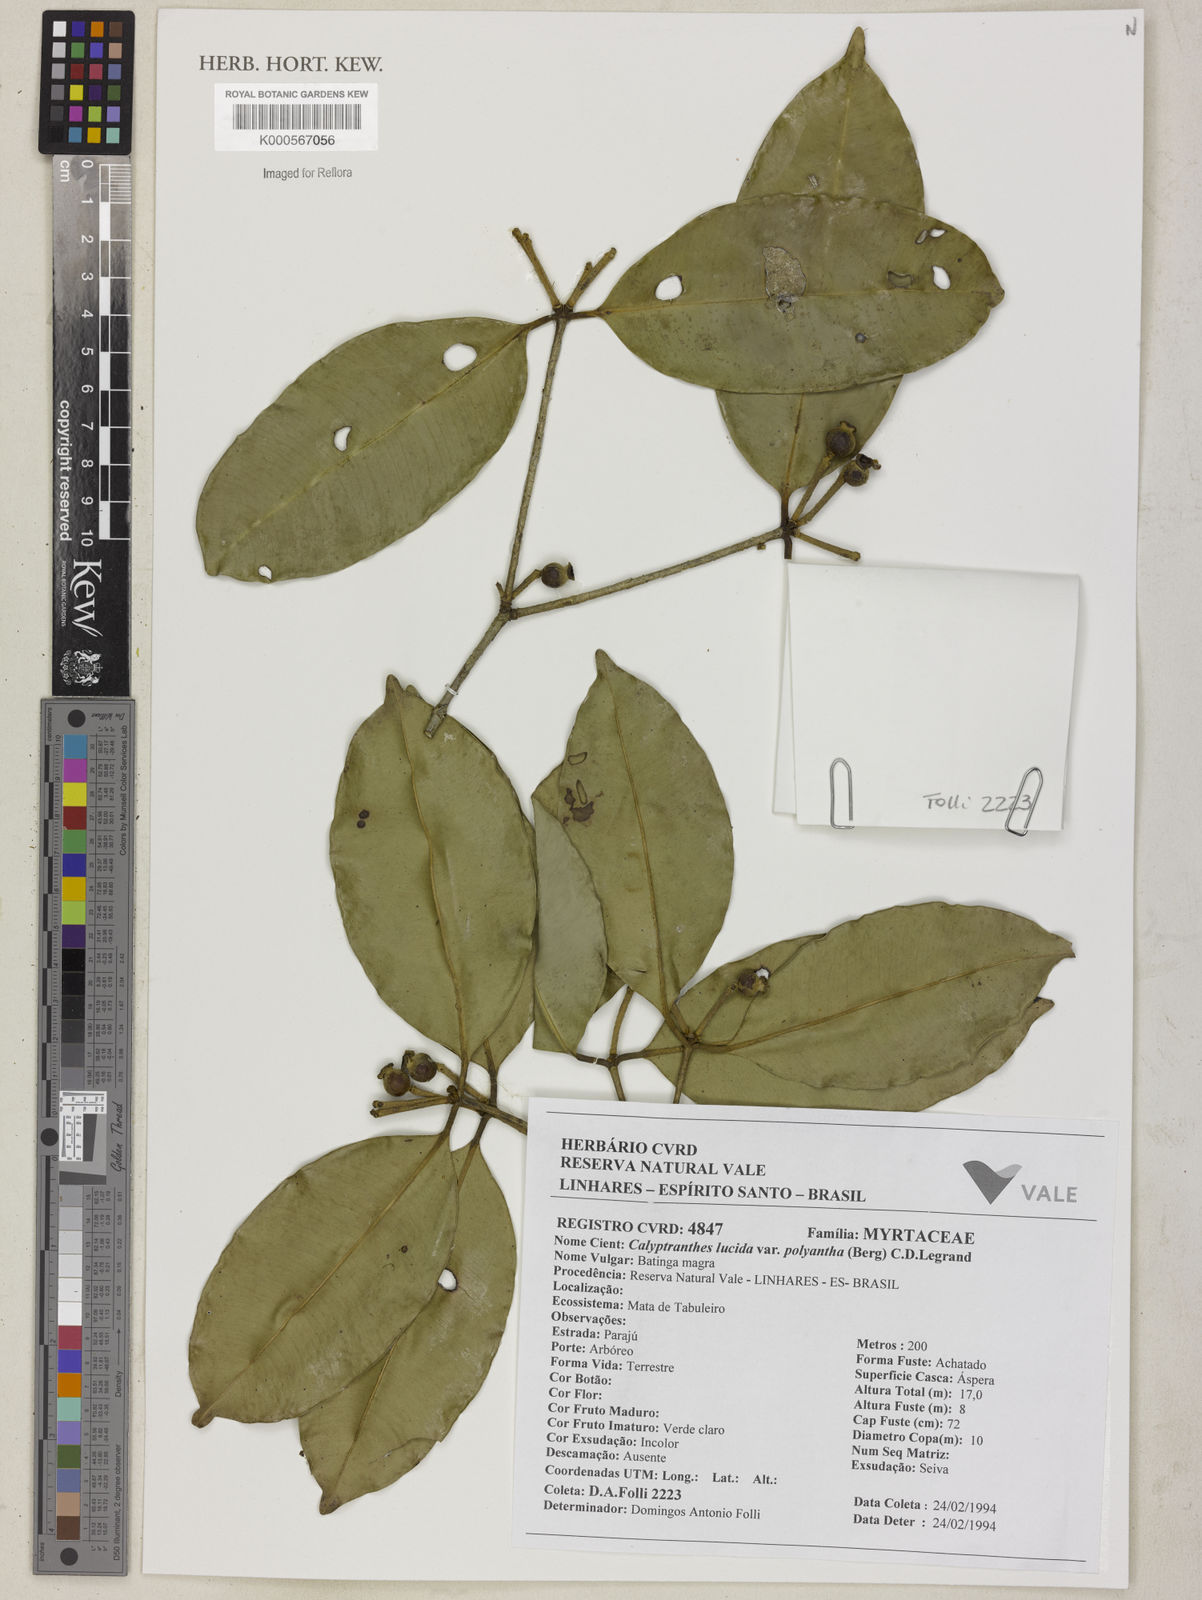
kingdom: Plantae
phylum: Tracheophyta
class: Magnoliopsida
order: Myrtales
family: Myrtaceae
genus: Myrcia
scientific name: Myrcia neolucida
